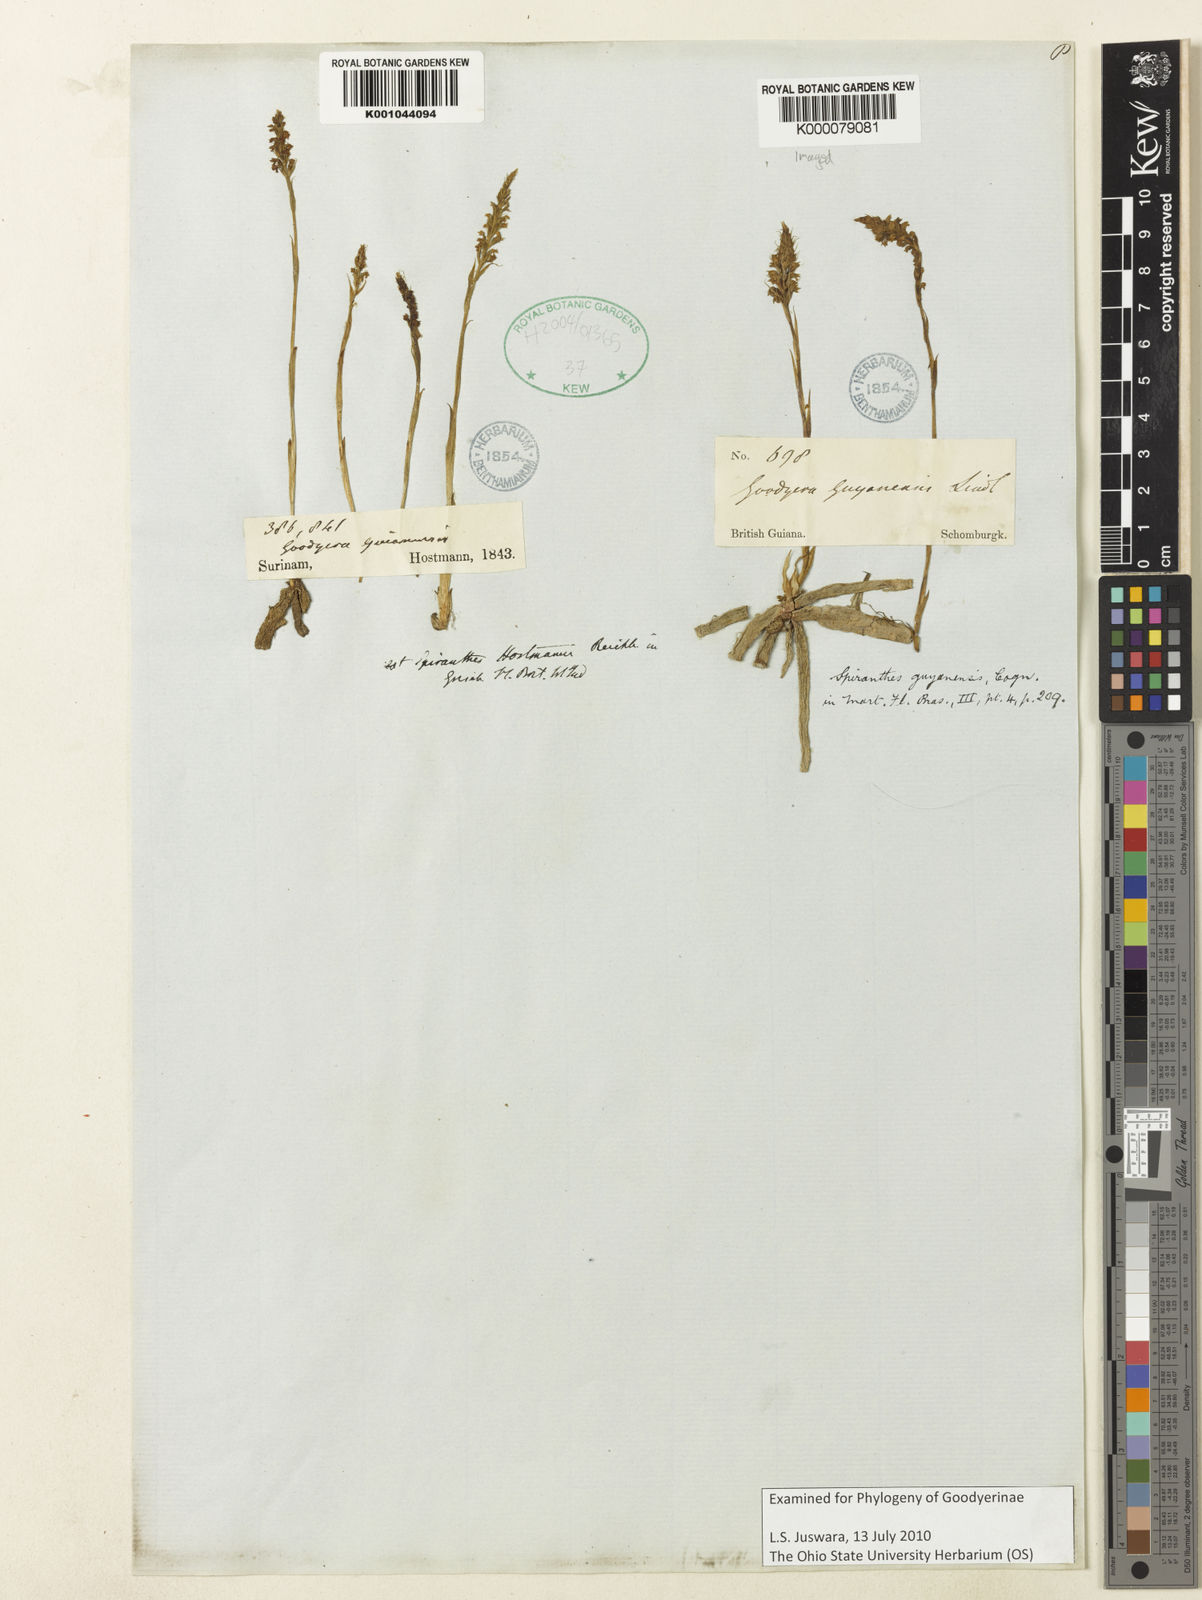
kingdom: Plantae
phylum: Tracheophyta
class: Liliopsida
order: Asparagales
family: Orchidaceae
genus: Brachystele
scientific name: Brachystele
